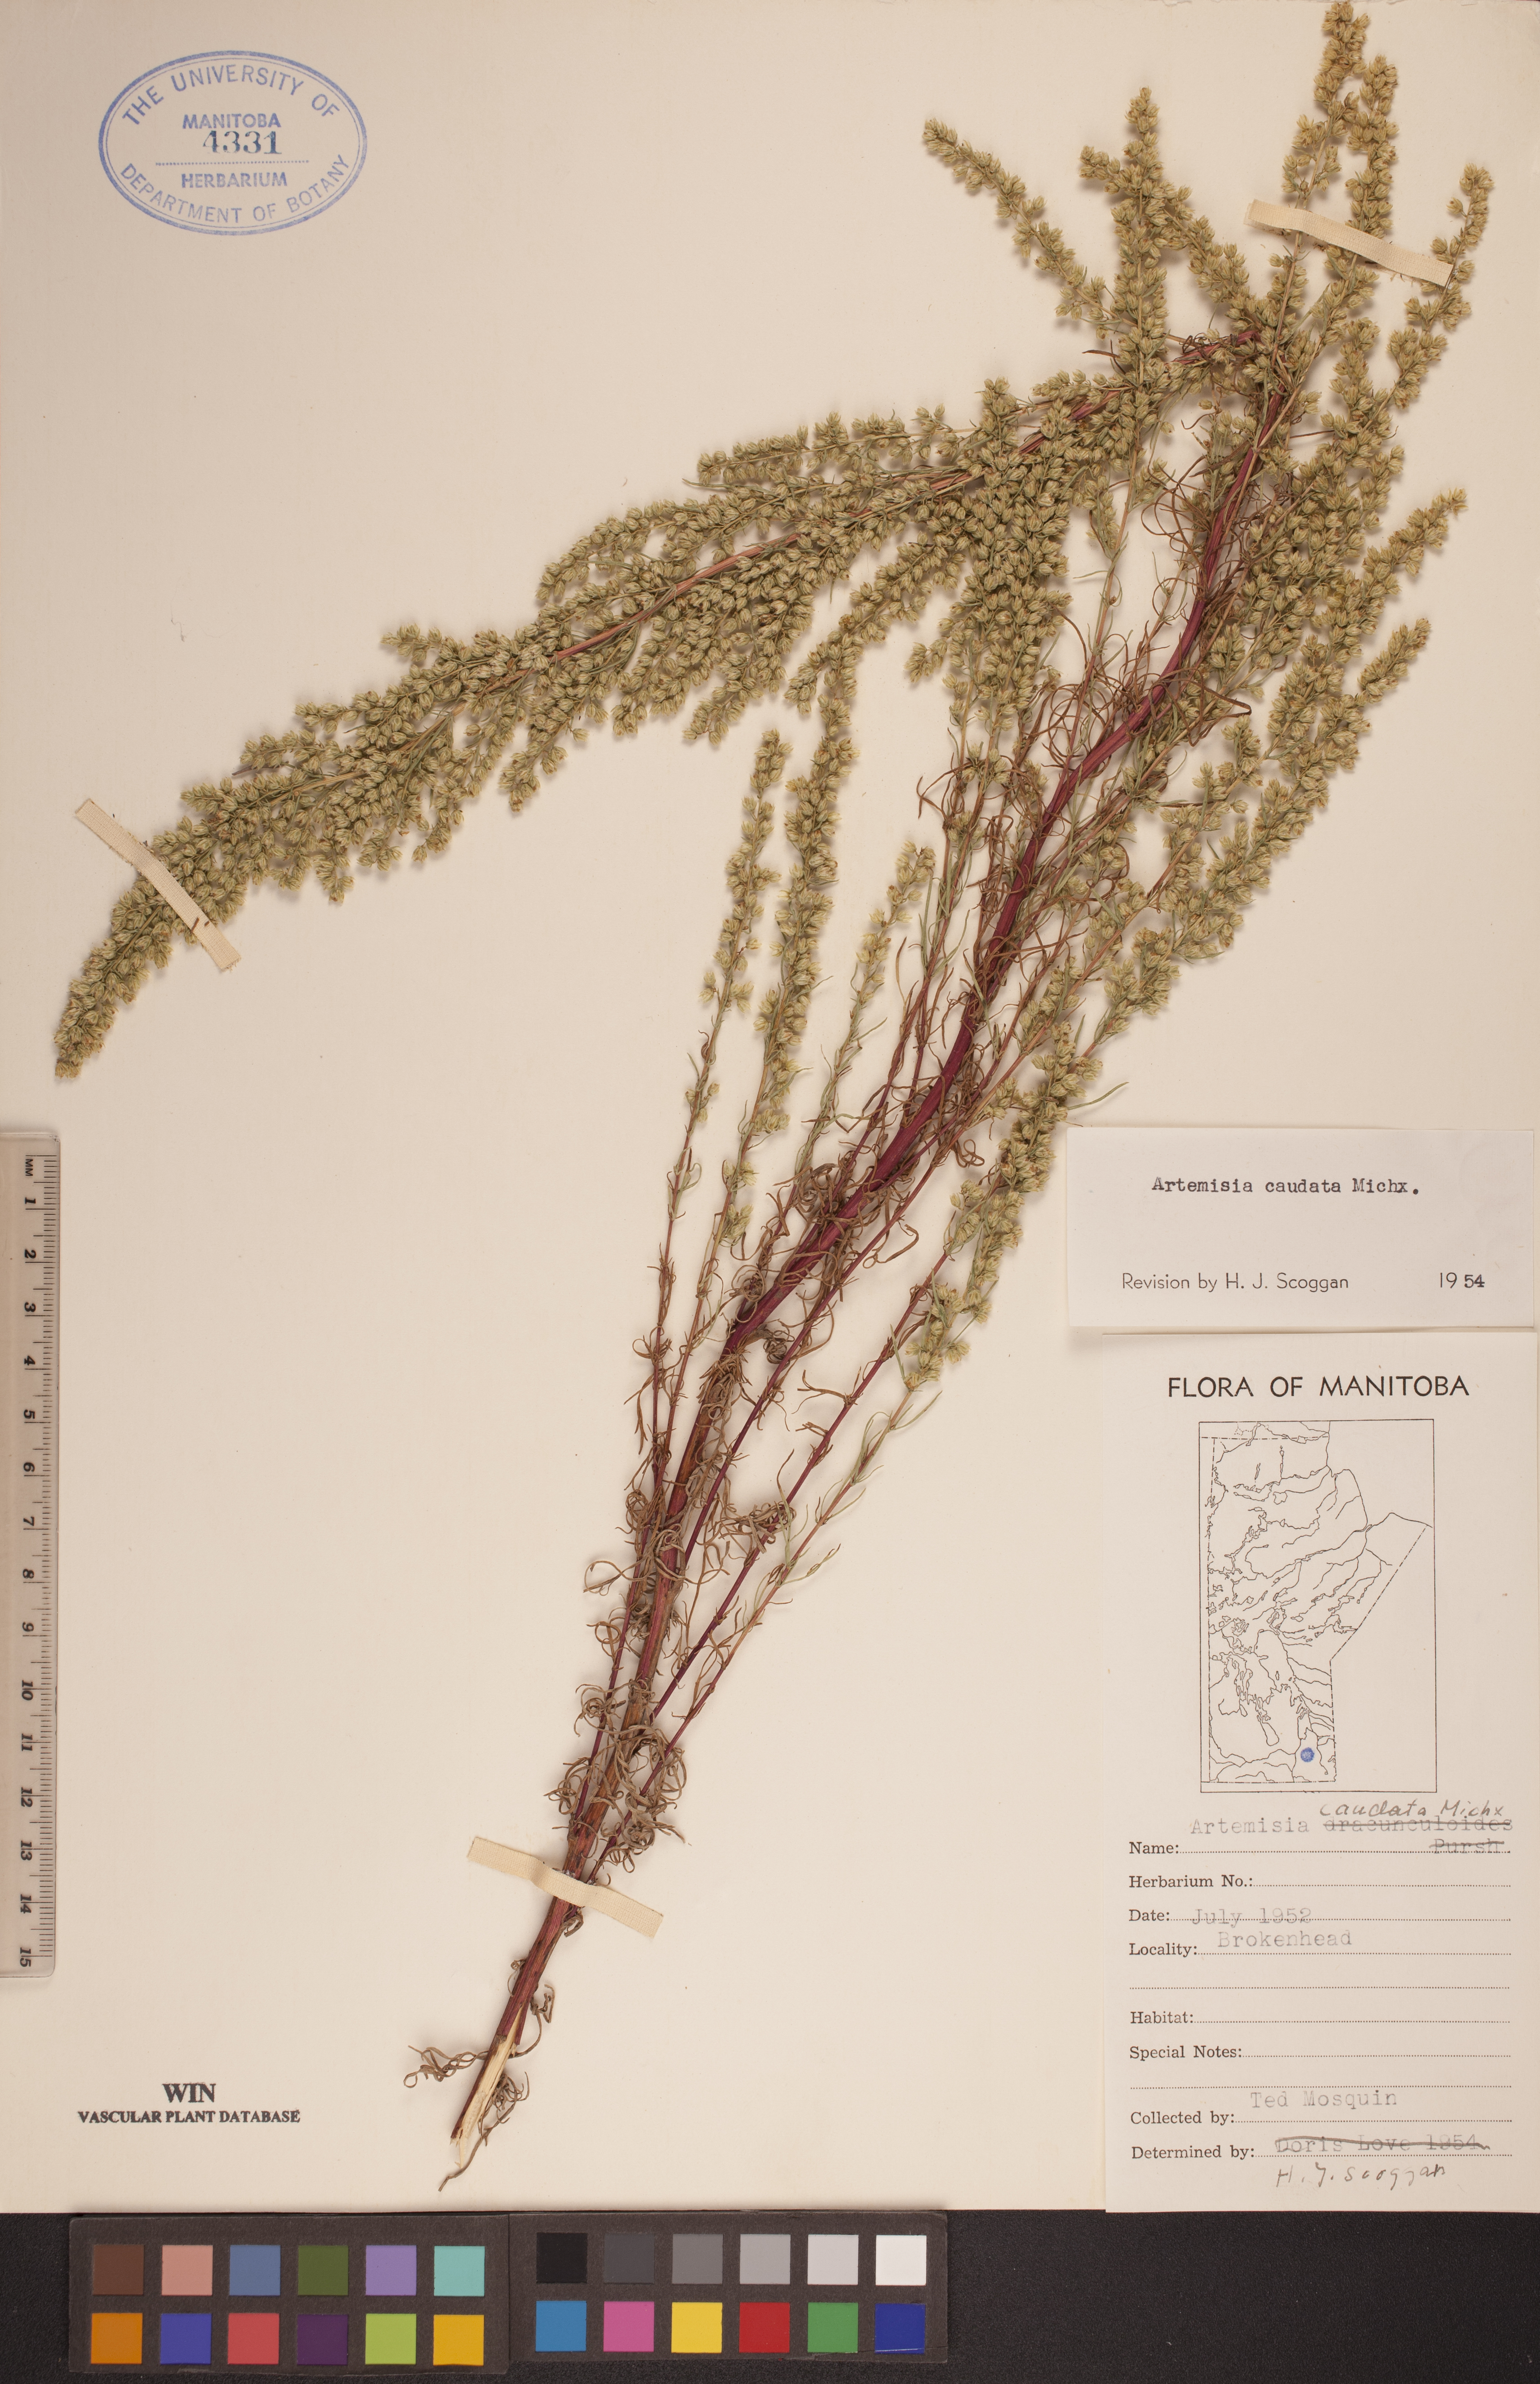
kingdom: Plantae
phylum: Tracheophyta
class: Magnoliopsida
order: Asterales
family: Asteraceae
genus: Artemisia
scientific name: Artemisia campestris
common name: Field wormwood
